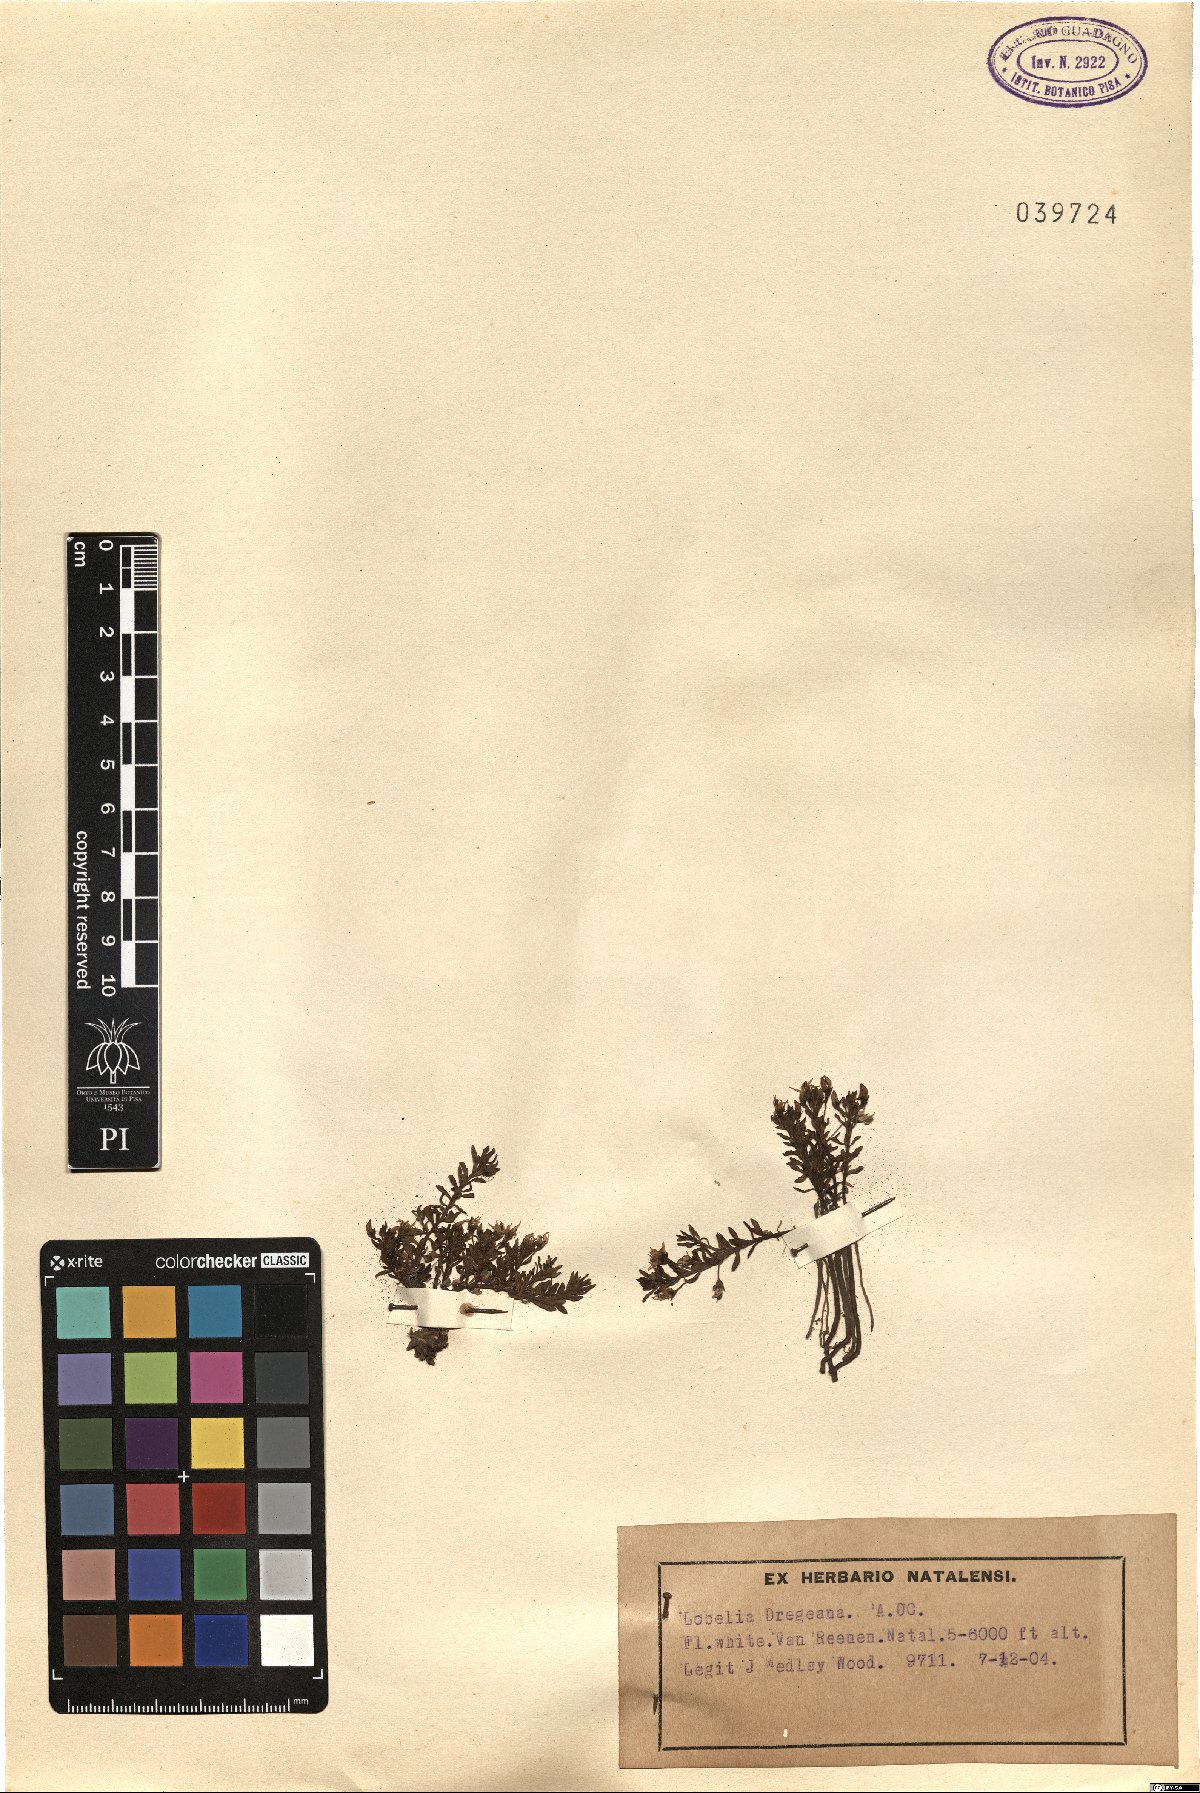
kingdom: Plantae
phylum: Tracheophyta
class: Magnoliopsida
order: Asterales
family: Campanulaceae
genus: Lobelia
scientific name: Lobelia dregeana
